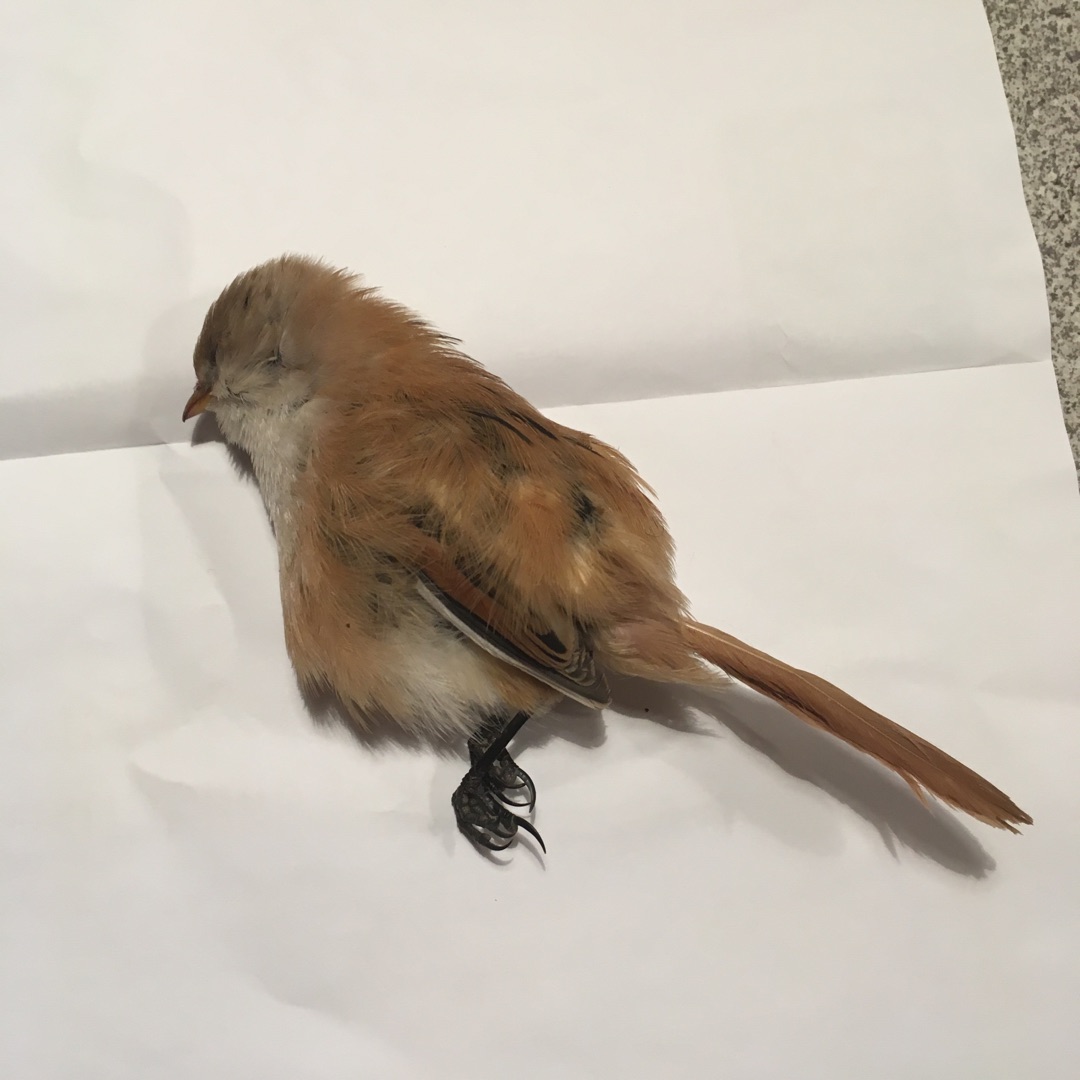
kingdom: Animalia
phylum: Chordata
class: Aves
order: Passeriformes
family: Panuridae
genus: Panurus
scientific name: Panurus biarmicus
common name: Skægmejse
